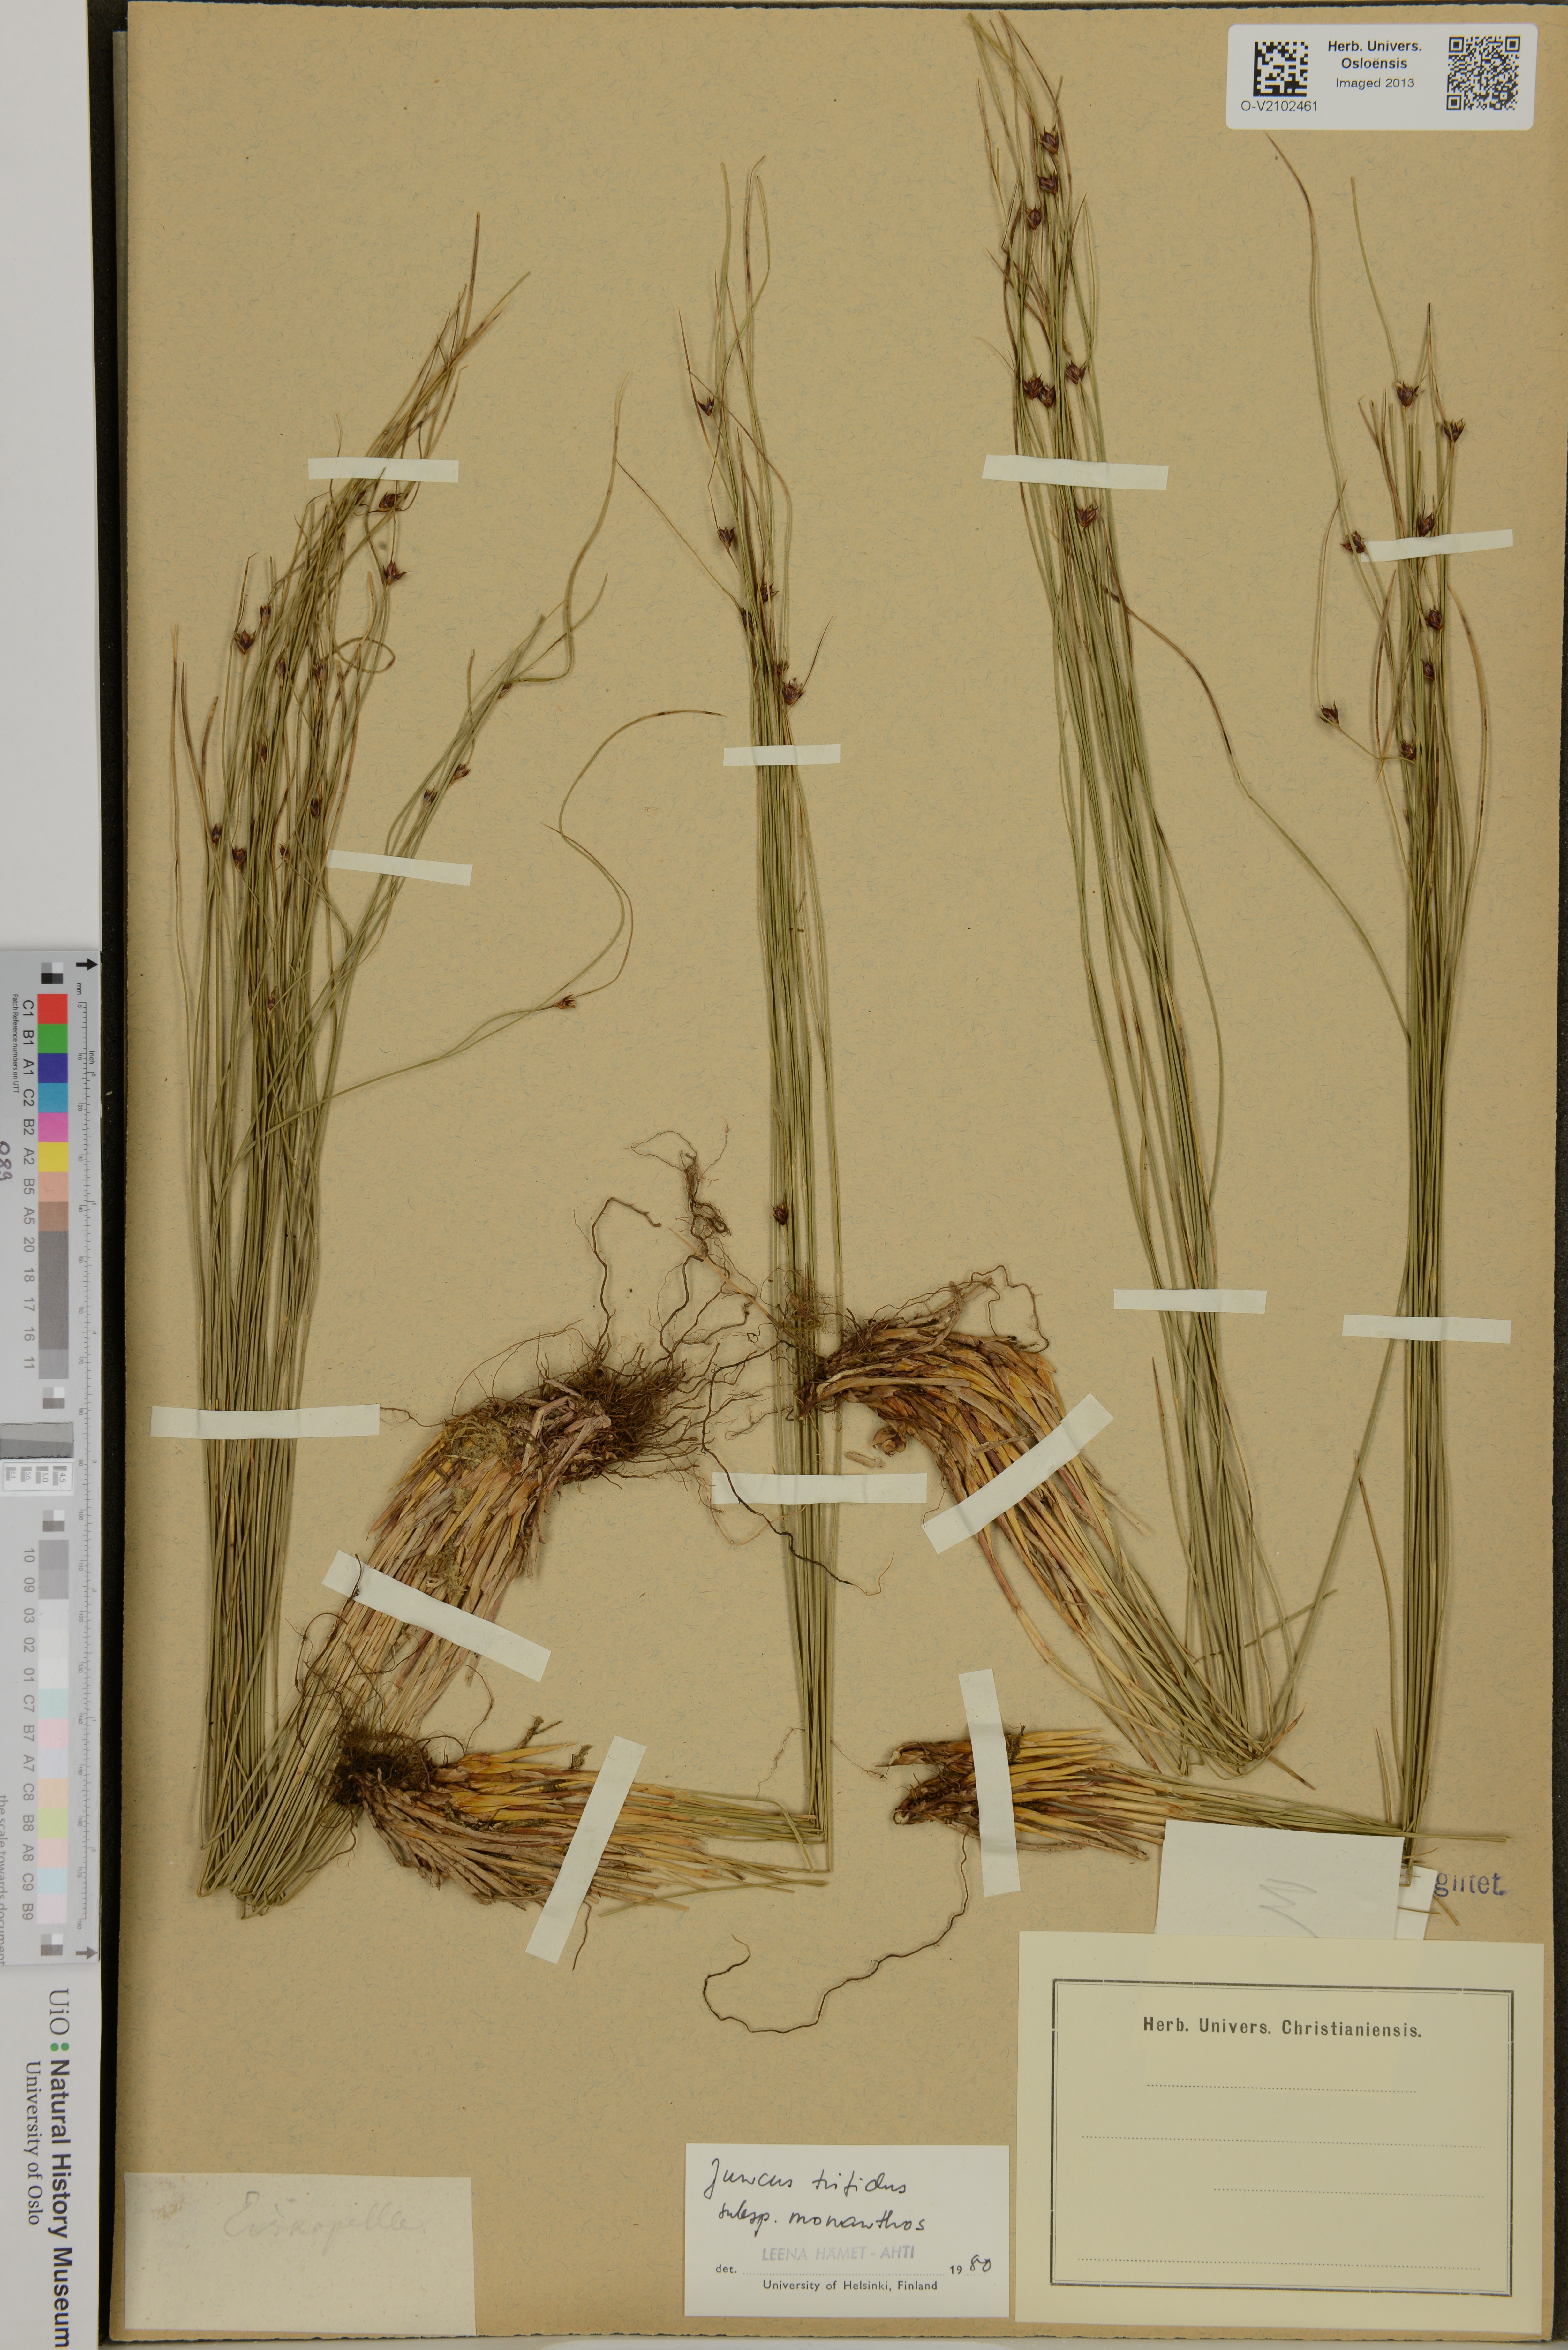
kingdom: Plantae
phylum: Tracheophyta
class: Liliopsida
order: Poales
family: Juncaceae
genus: Oreojuncus
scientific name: Oreojuncus trifidus
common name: Highland rush
